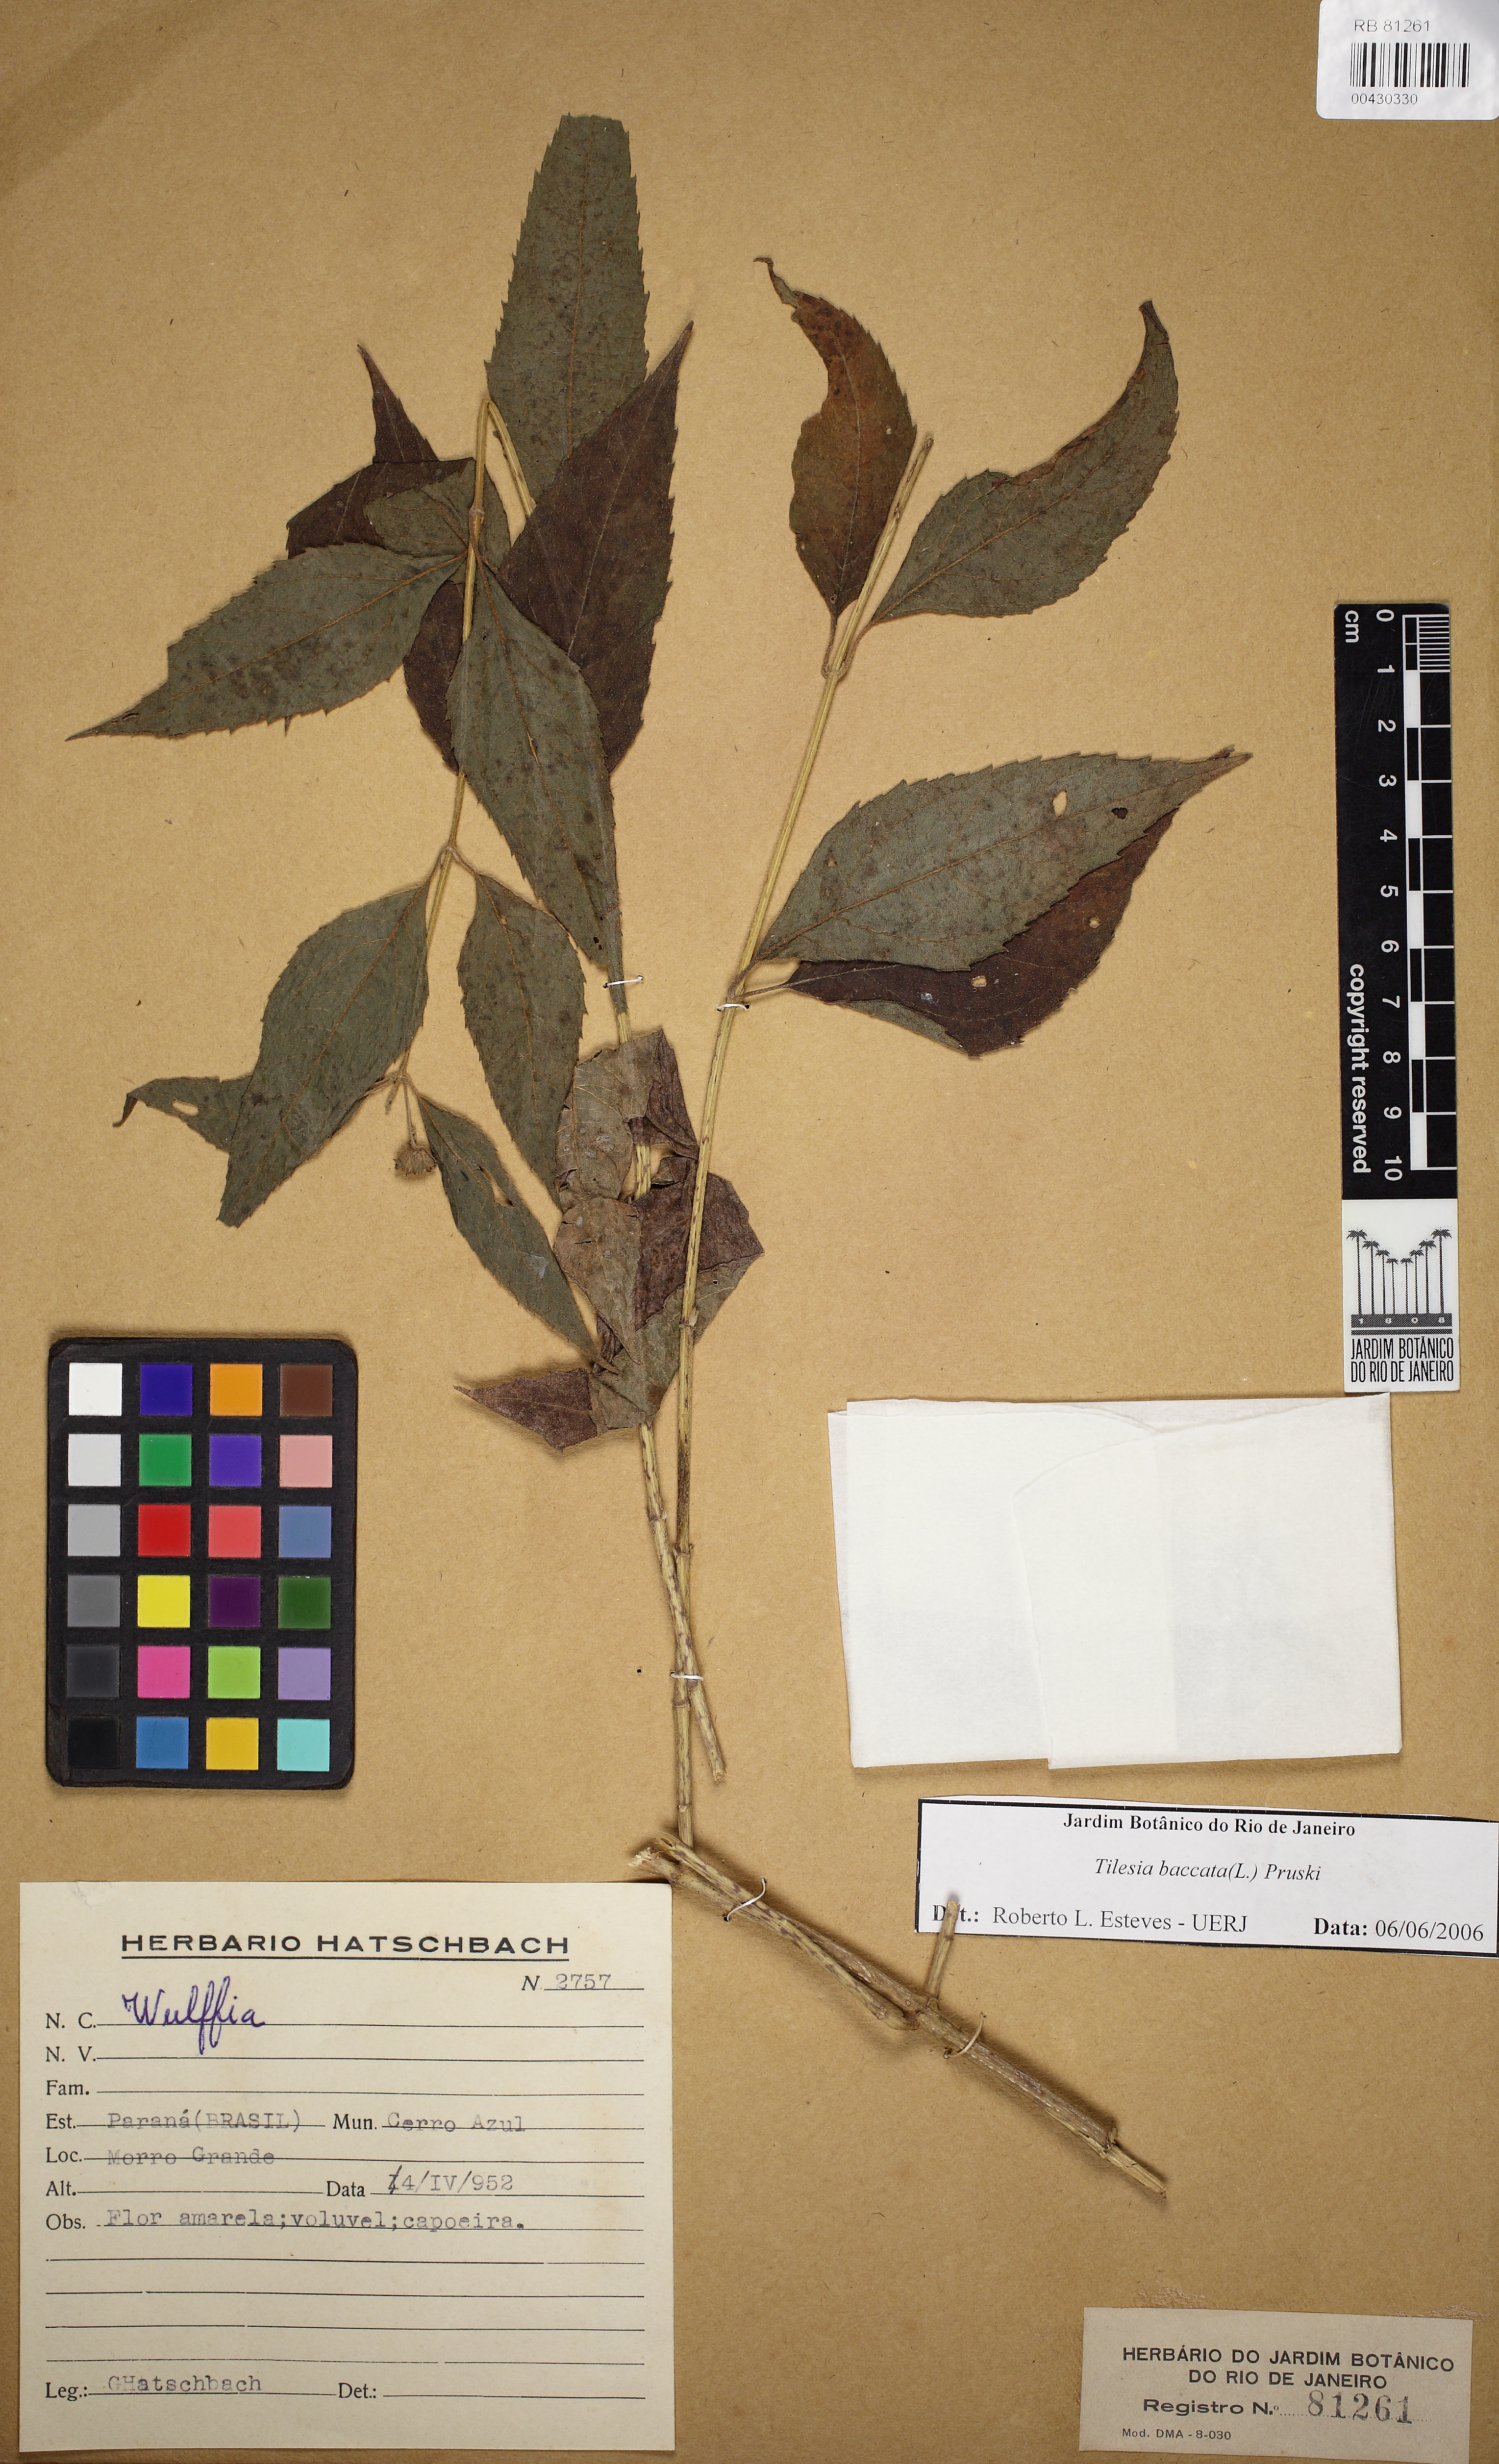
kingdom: Plantae
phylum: Tracheophyta
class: Magnoliopsida
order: Asterales
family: Asteraceae
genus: Tilesia
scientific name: Tilesia baccata
